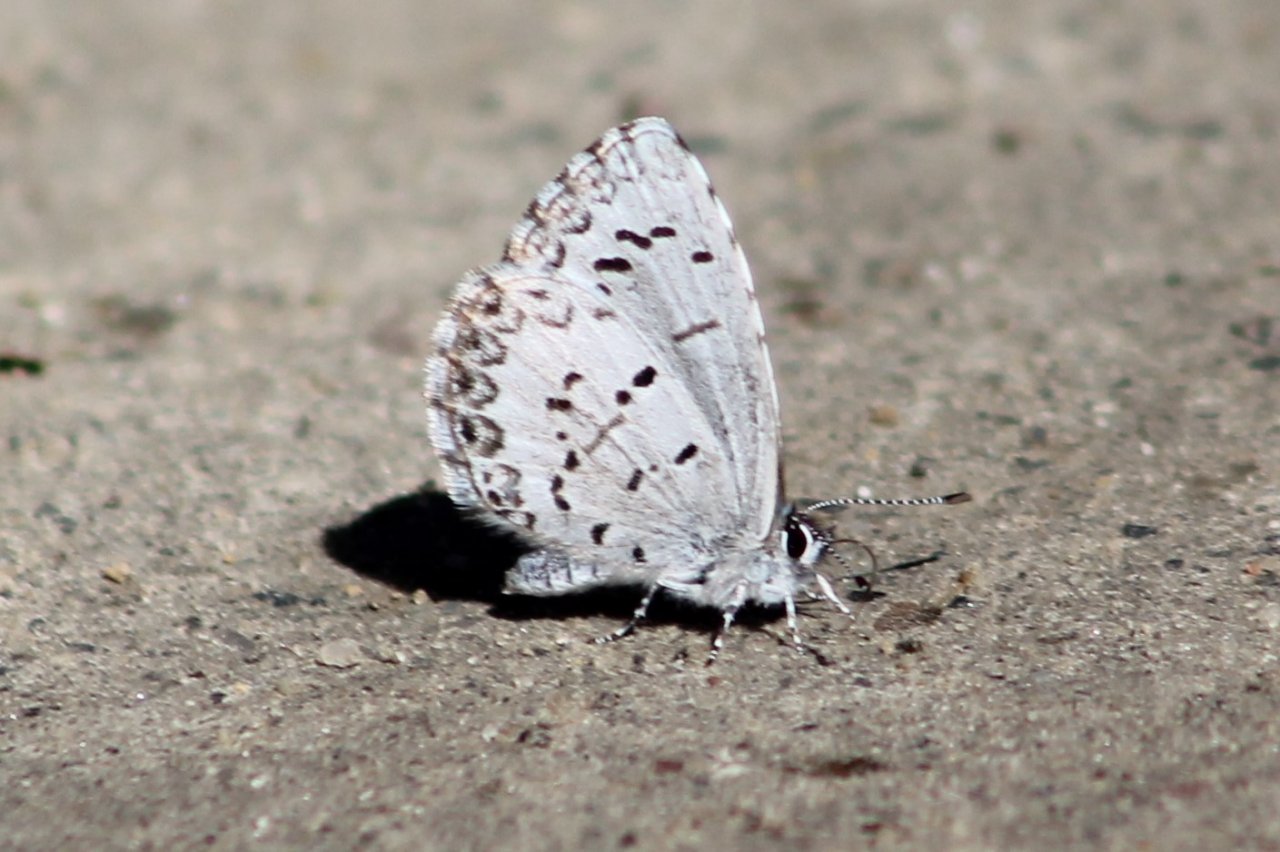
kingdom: Animalia
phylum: Arthropoda
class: Insecta
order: Lepidoptera
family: Lycaenidae
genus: Celastrina
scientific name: Celastrina lucia
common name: Northern Spring Azure
